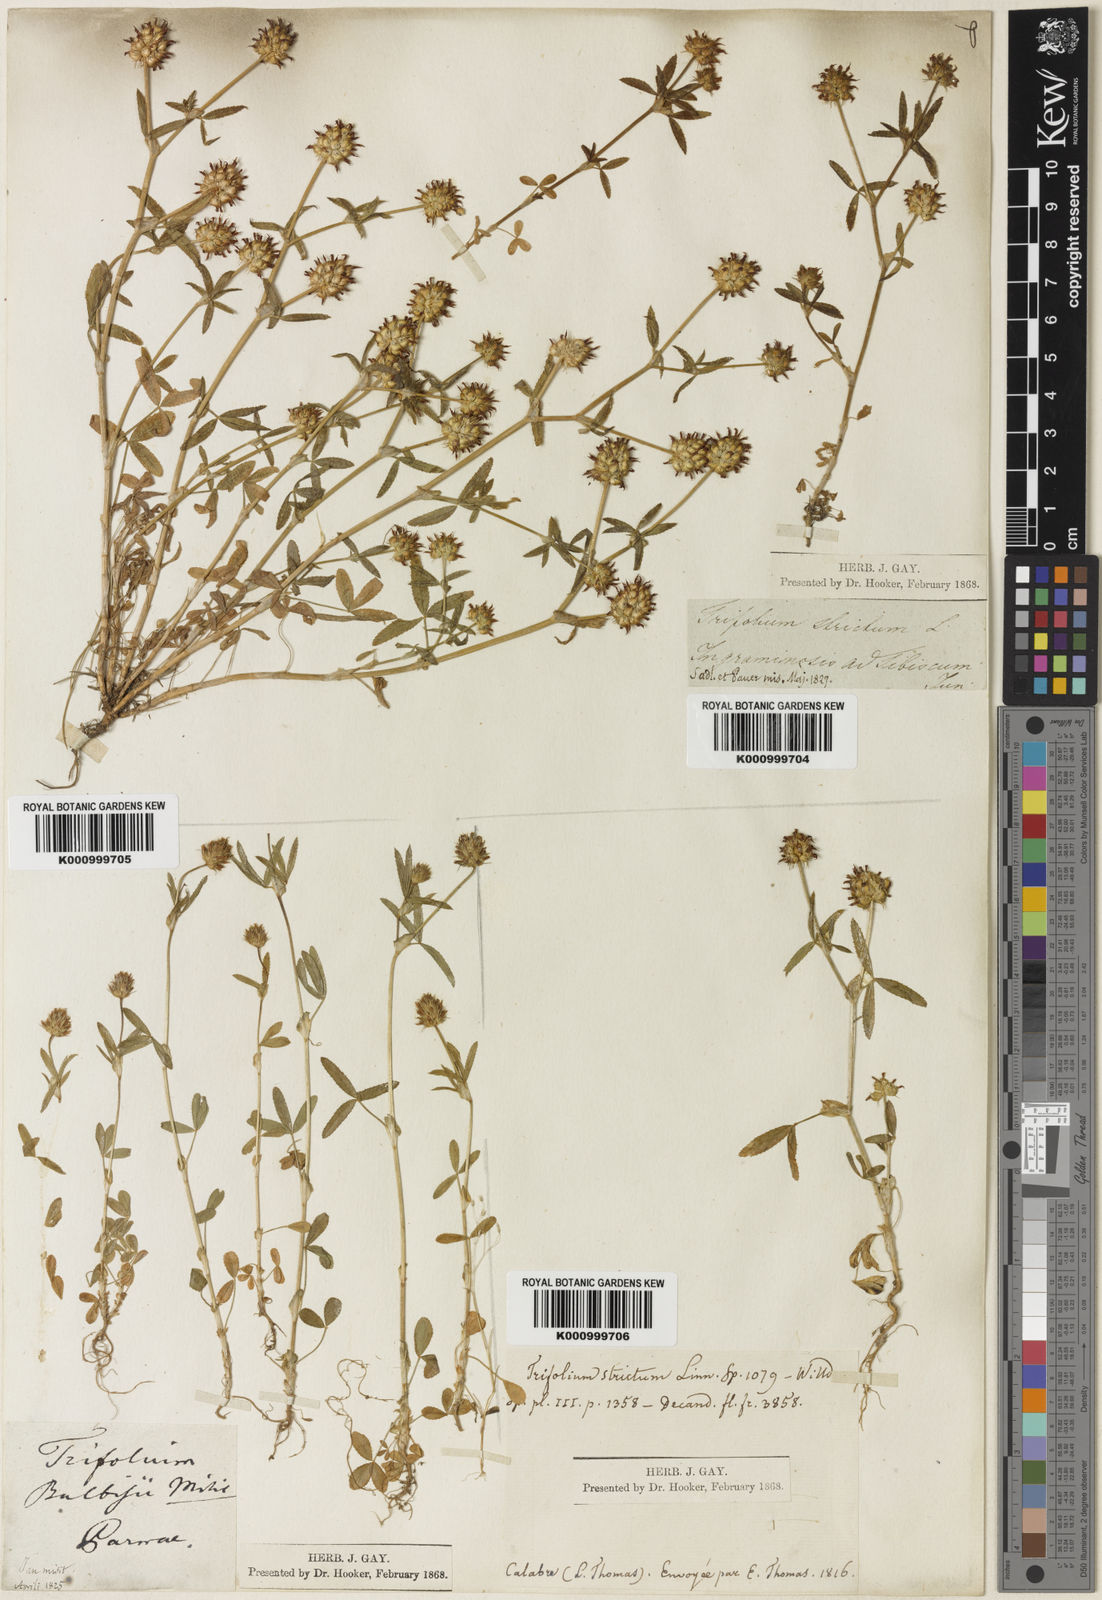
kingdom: Plantae
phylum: Tracheophyta
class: Magnoliopsida
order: Fabales
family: Fabaceae
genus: Trifolium
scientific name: Trifolium strictum
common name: Upright clover
